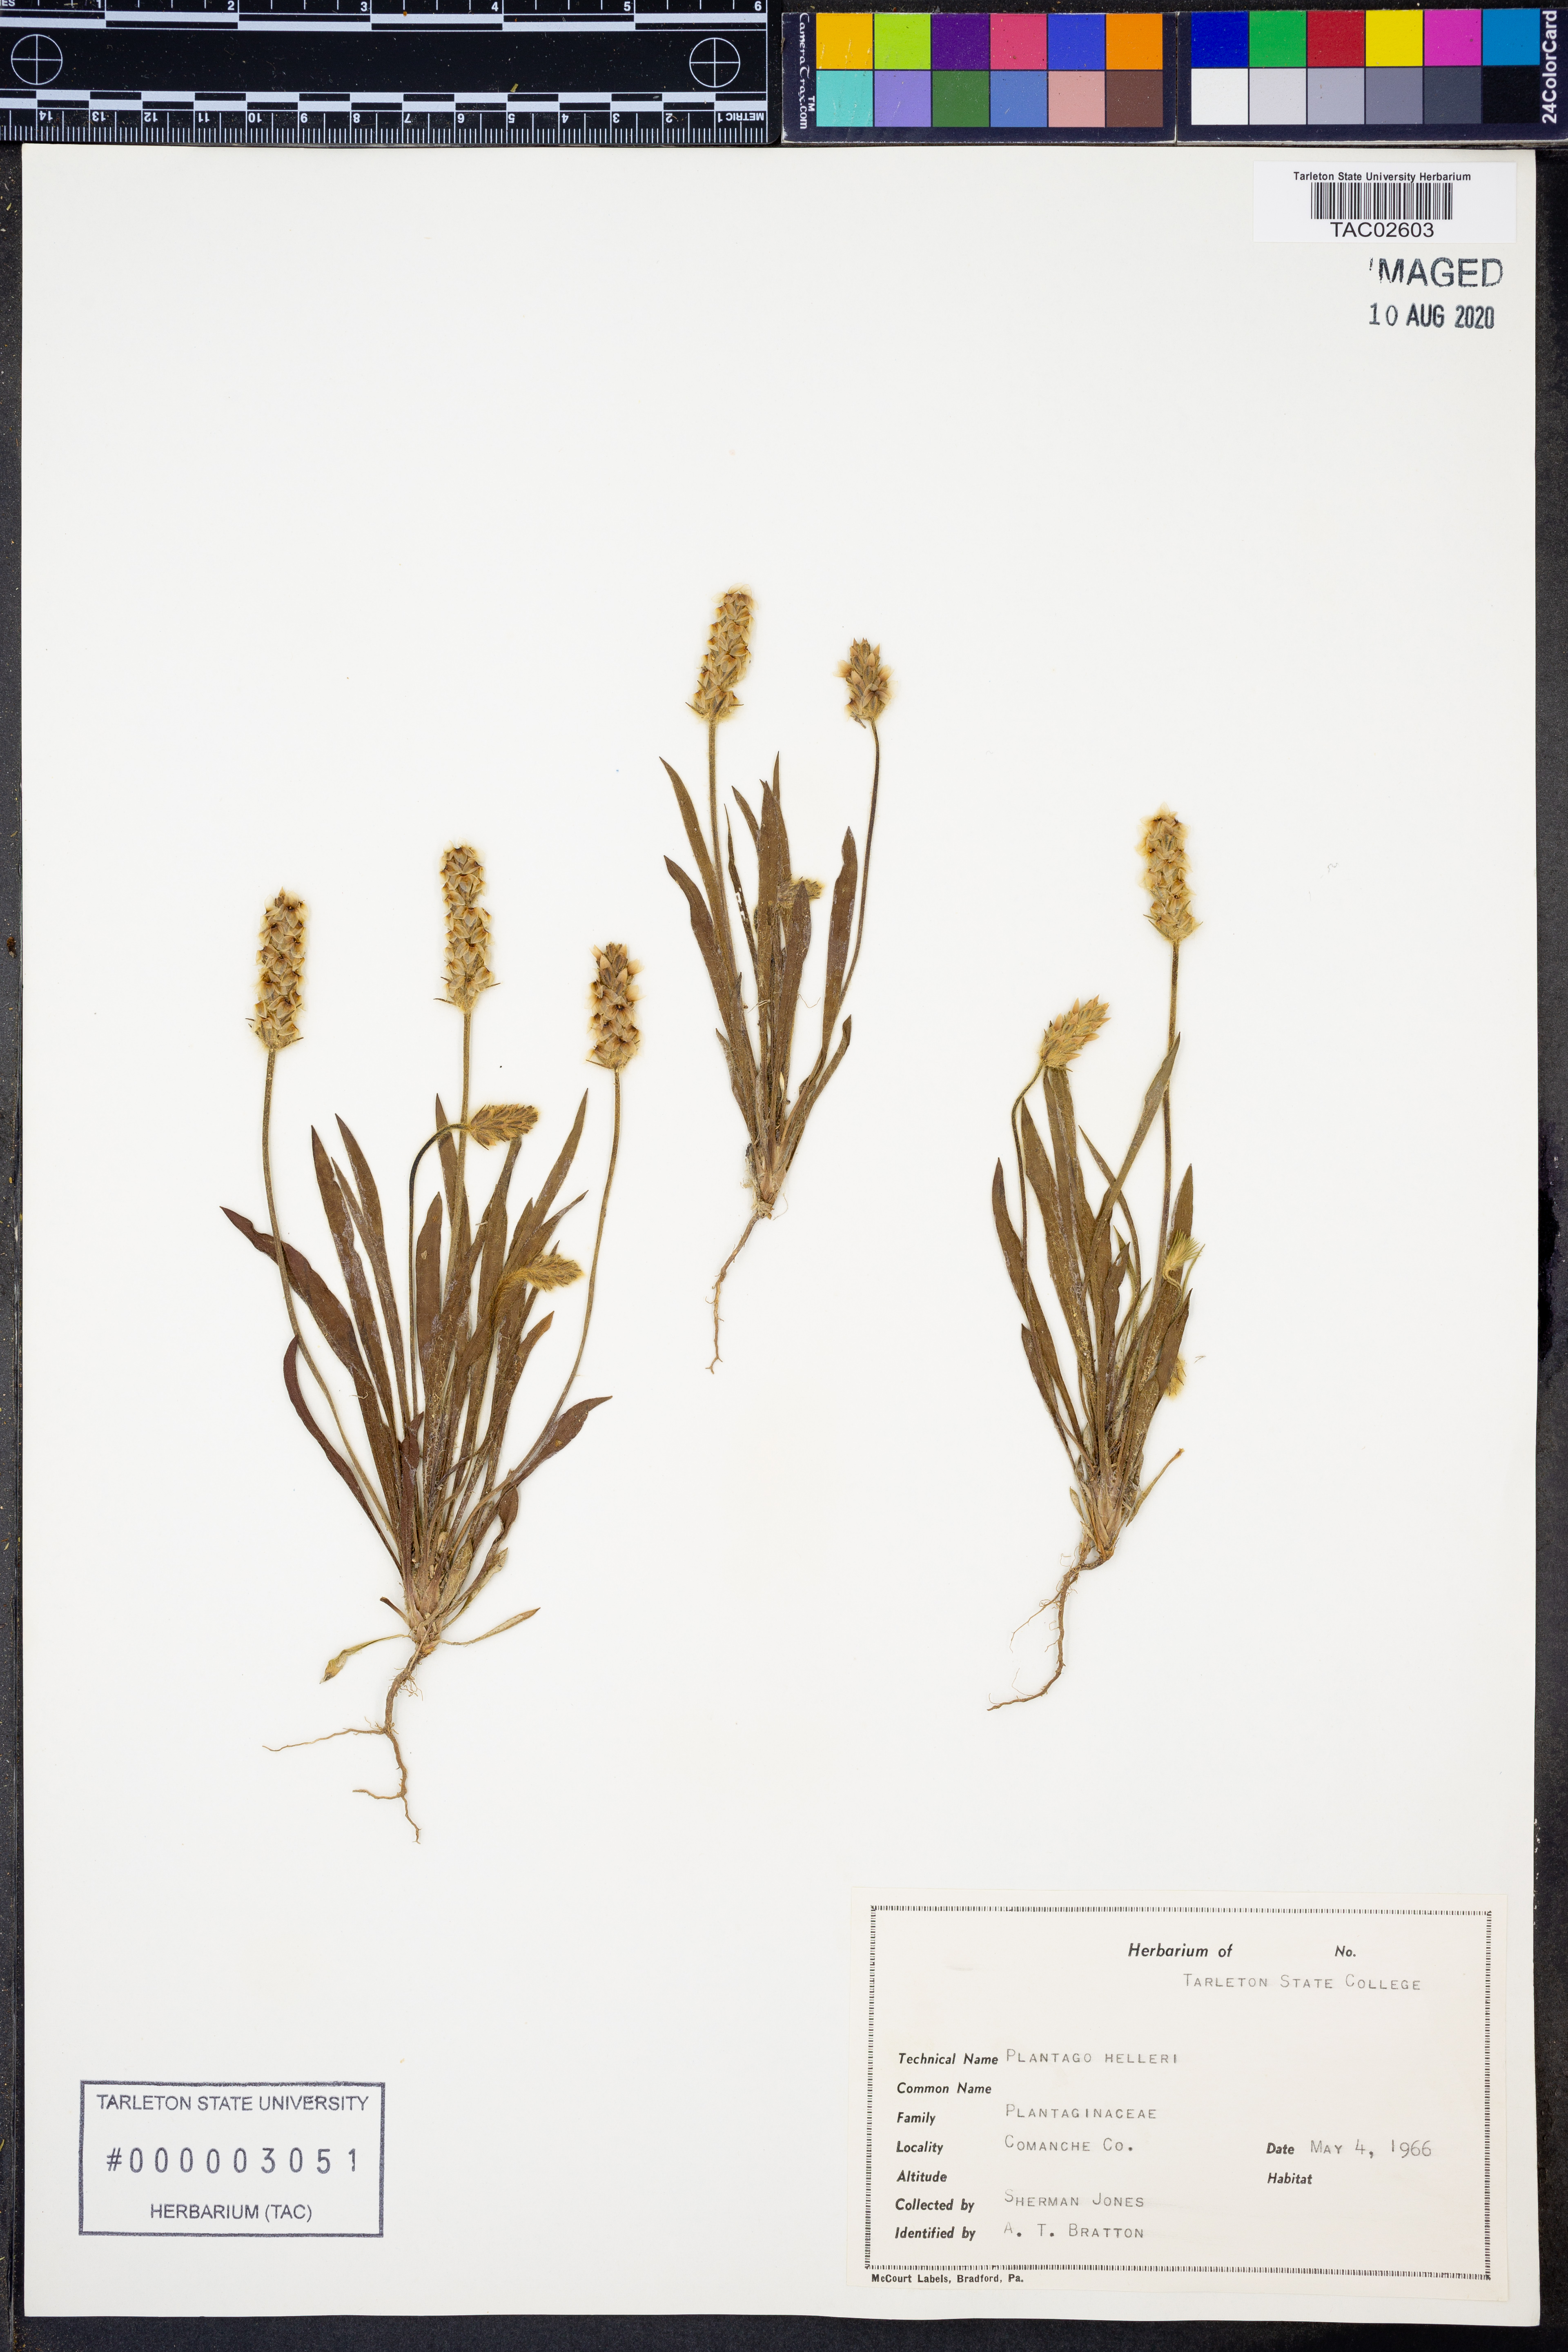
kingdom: Plantae
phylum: Tracheophyta
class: Magnoliopsida
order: Lamiales
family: Plantaginaceae
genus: Plantago
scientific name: Plantago helleri
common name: Heller's plantain
